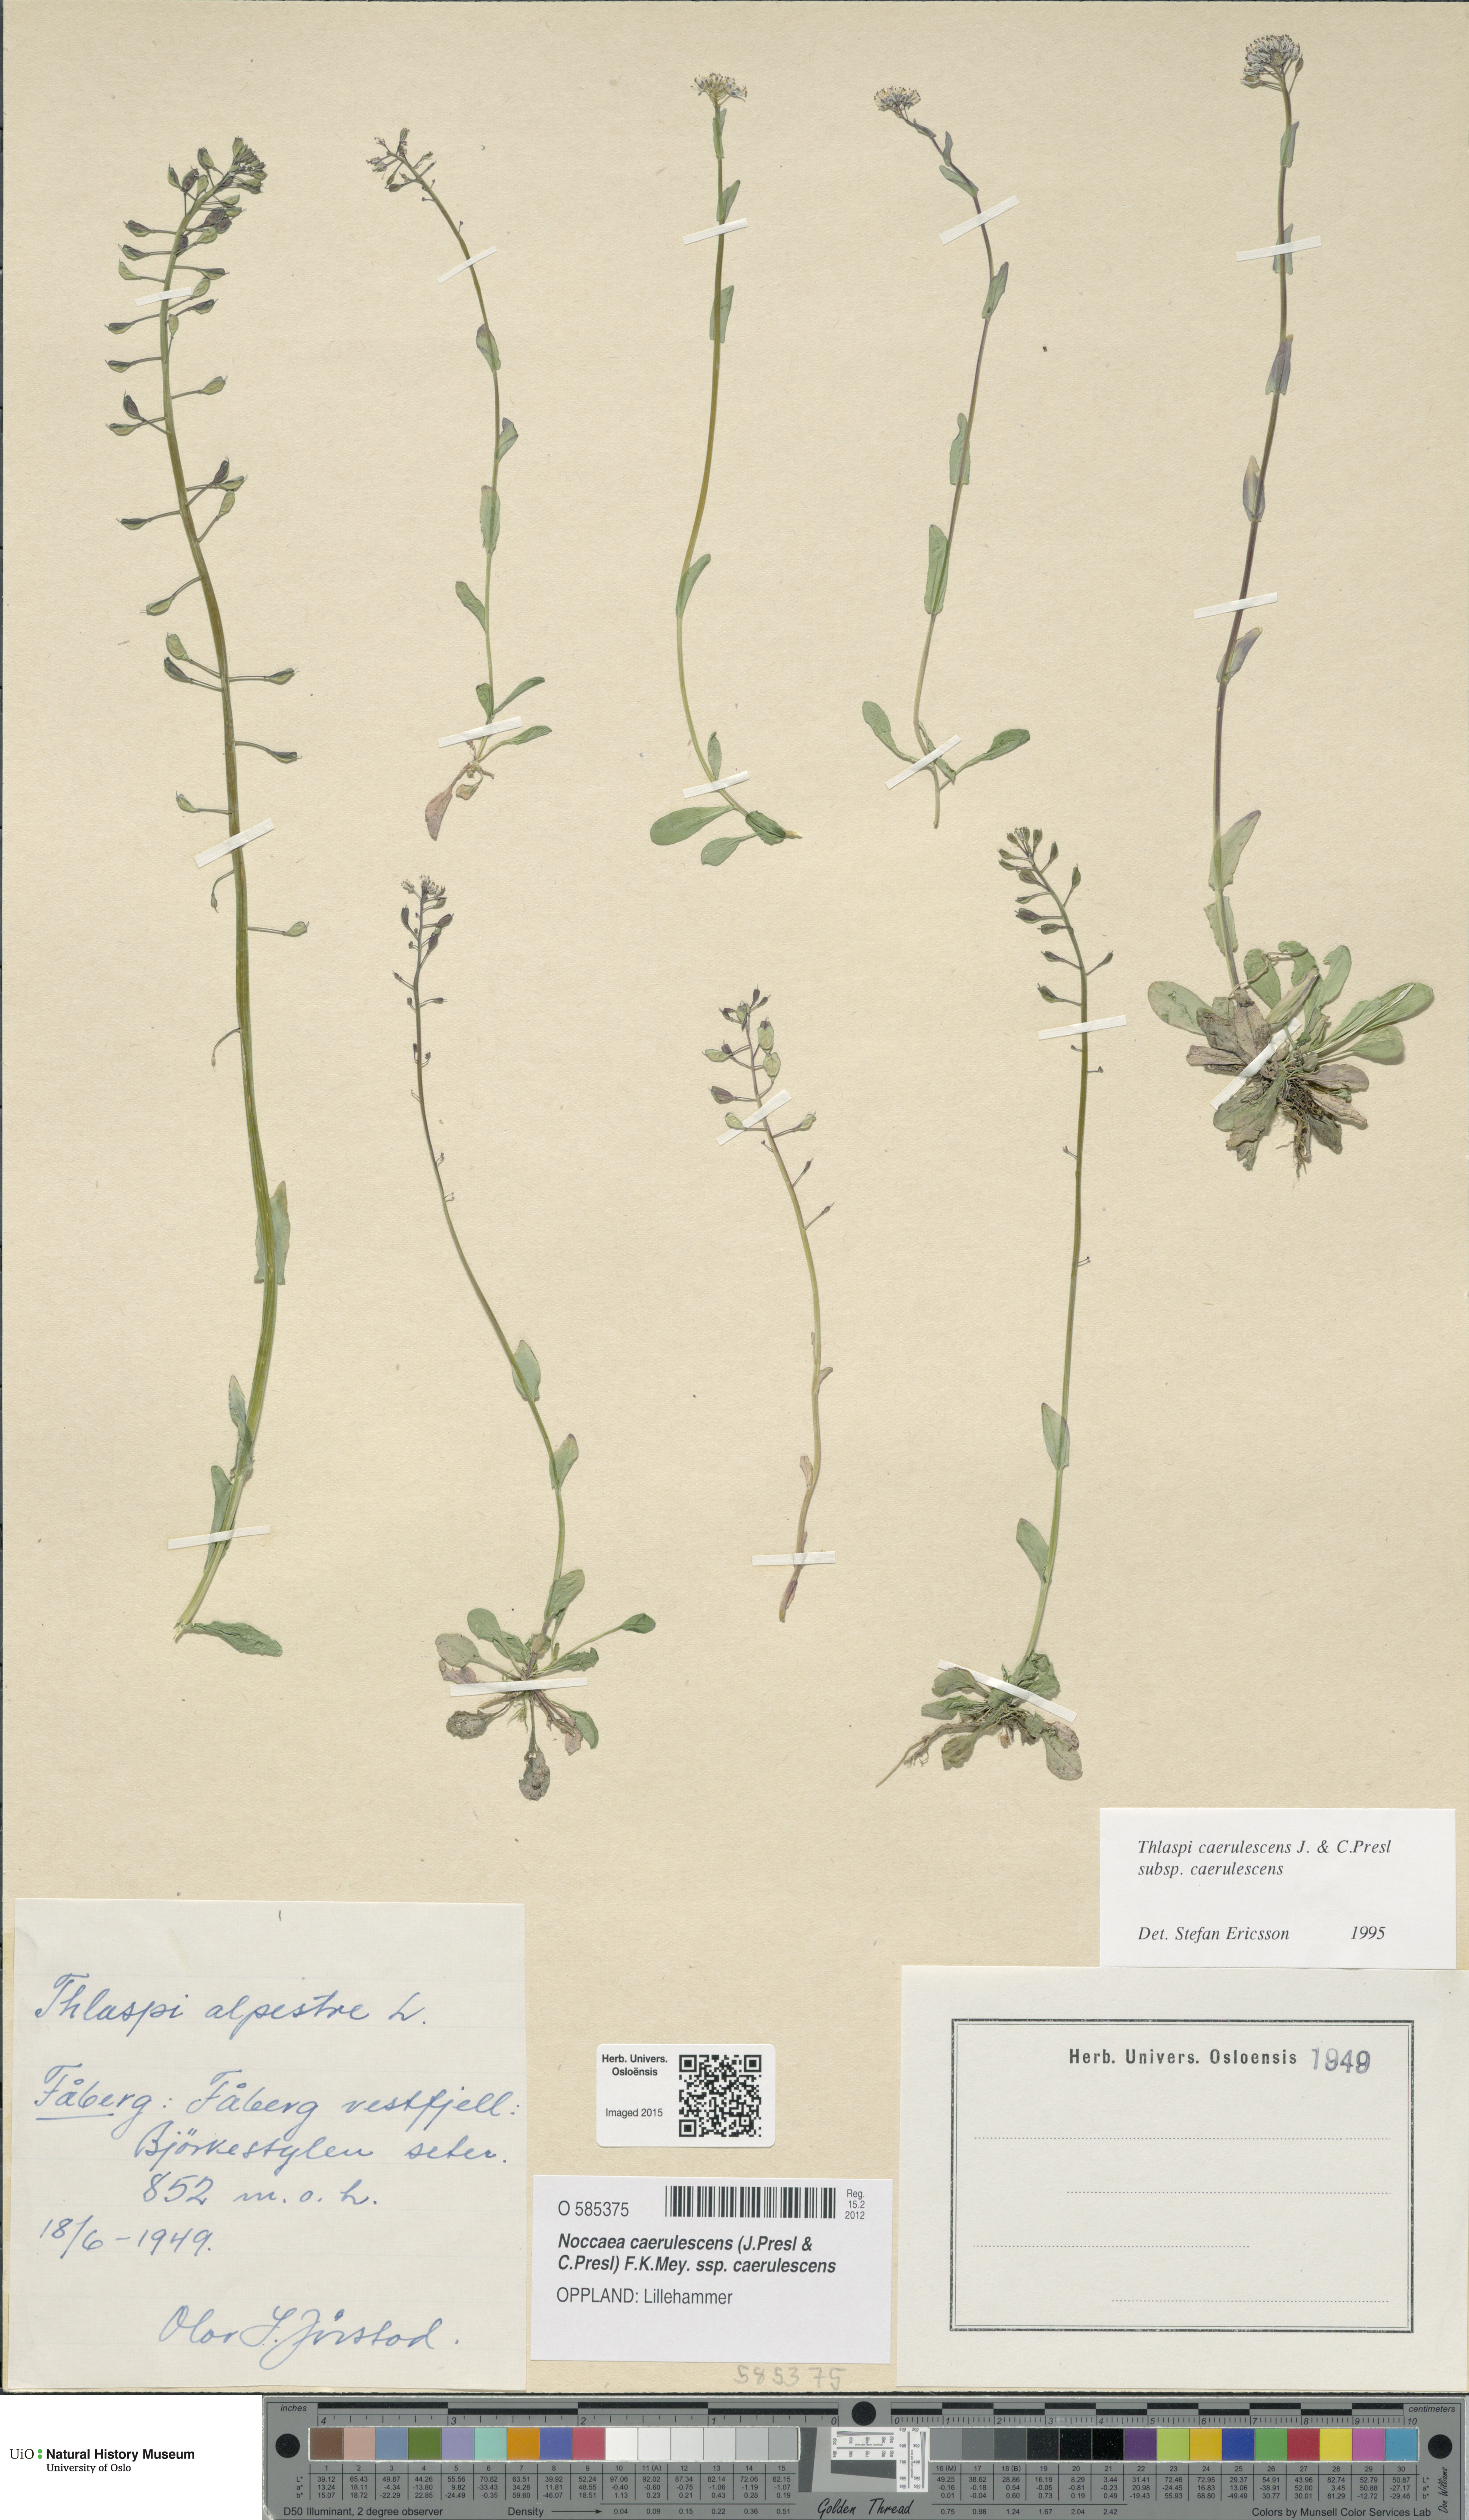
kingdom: Plantae
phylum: Tracheophyta
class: Magnoliopsida
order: Brassicales
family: Brassicaceae
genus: Noccaea
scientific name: Noccaea caerulescens
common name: Alpine pennycress
